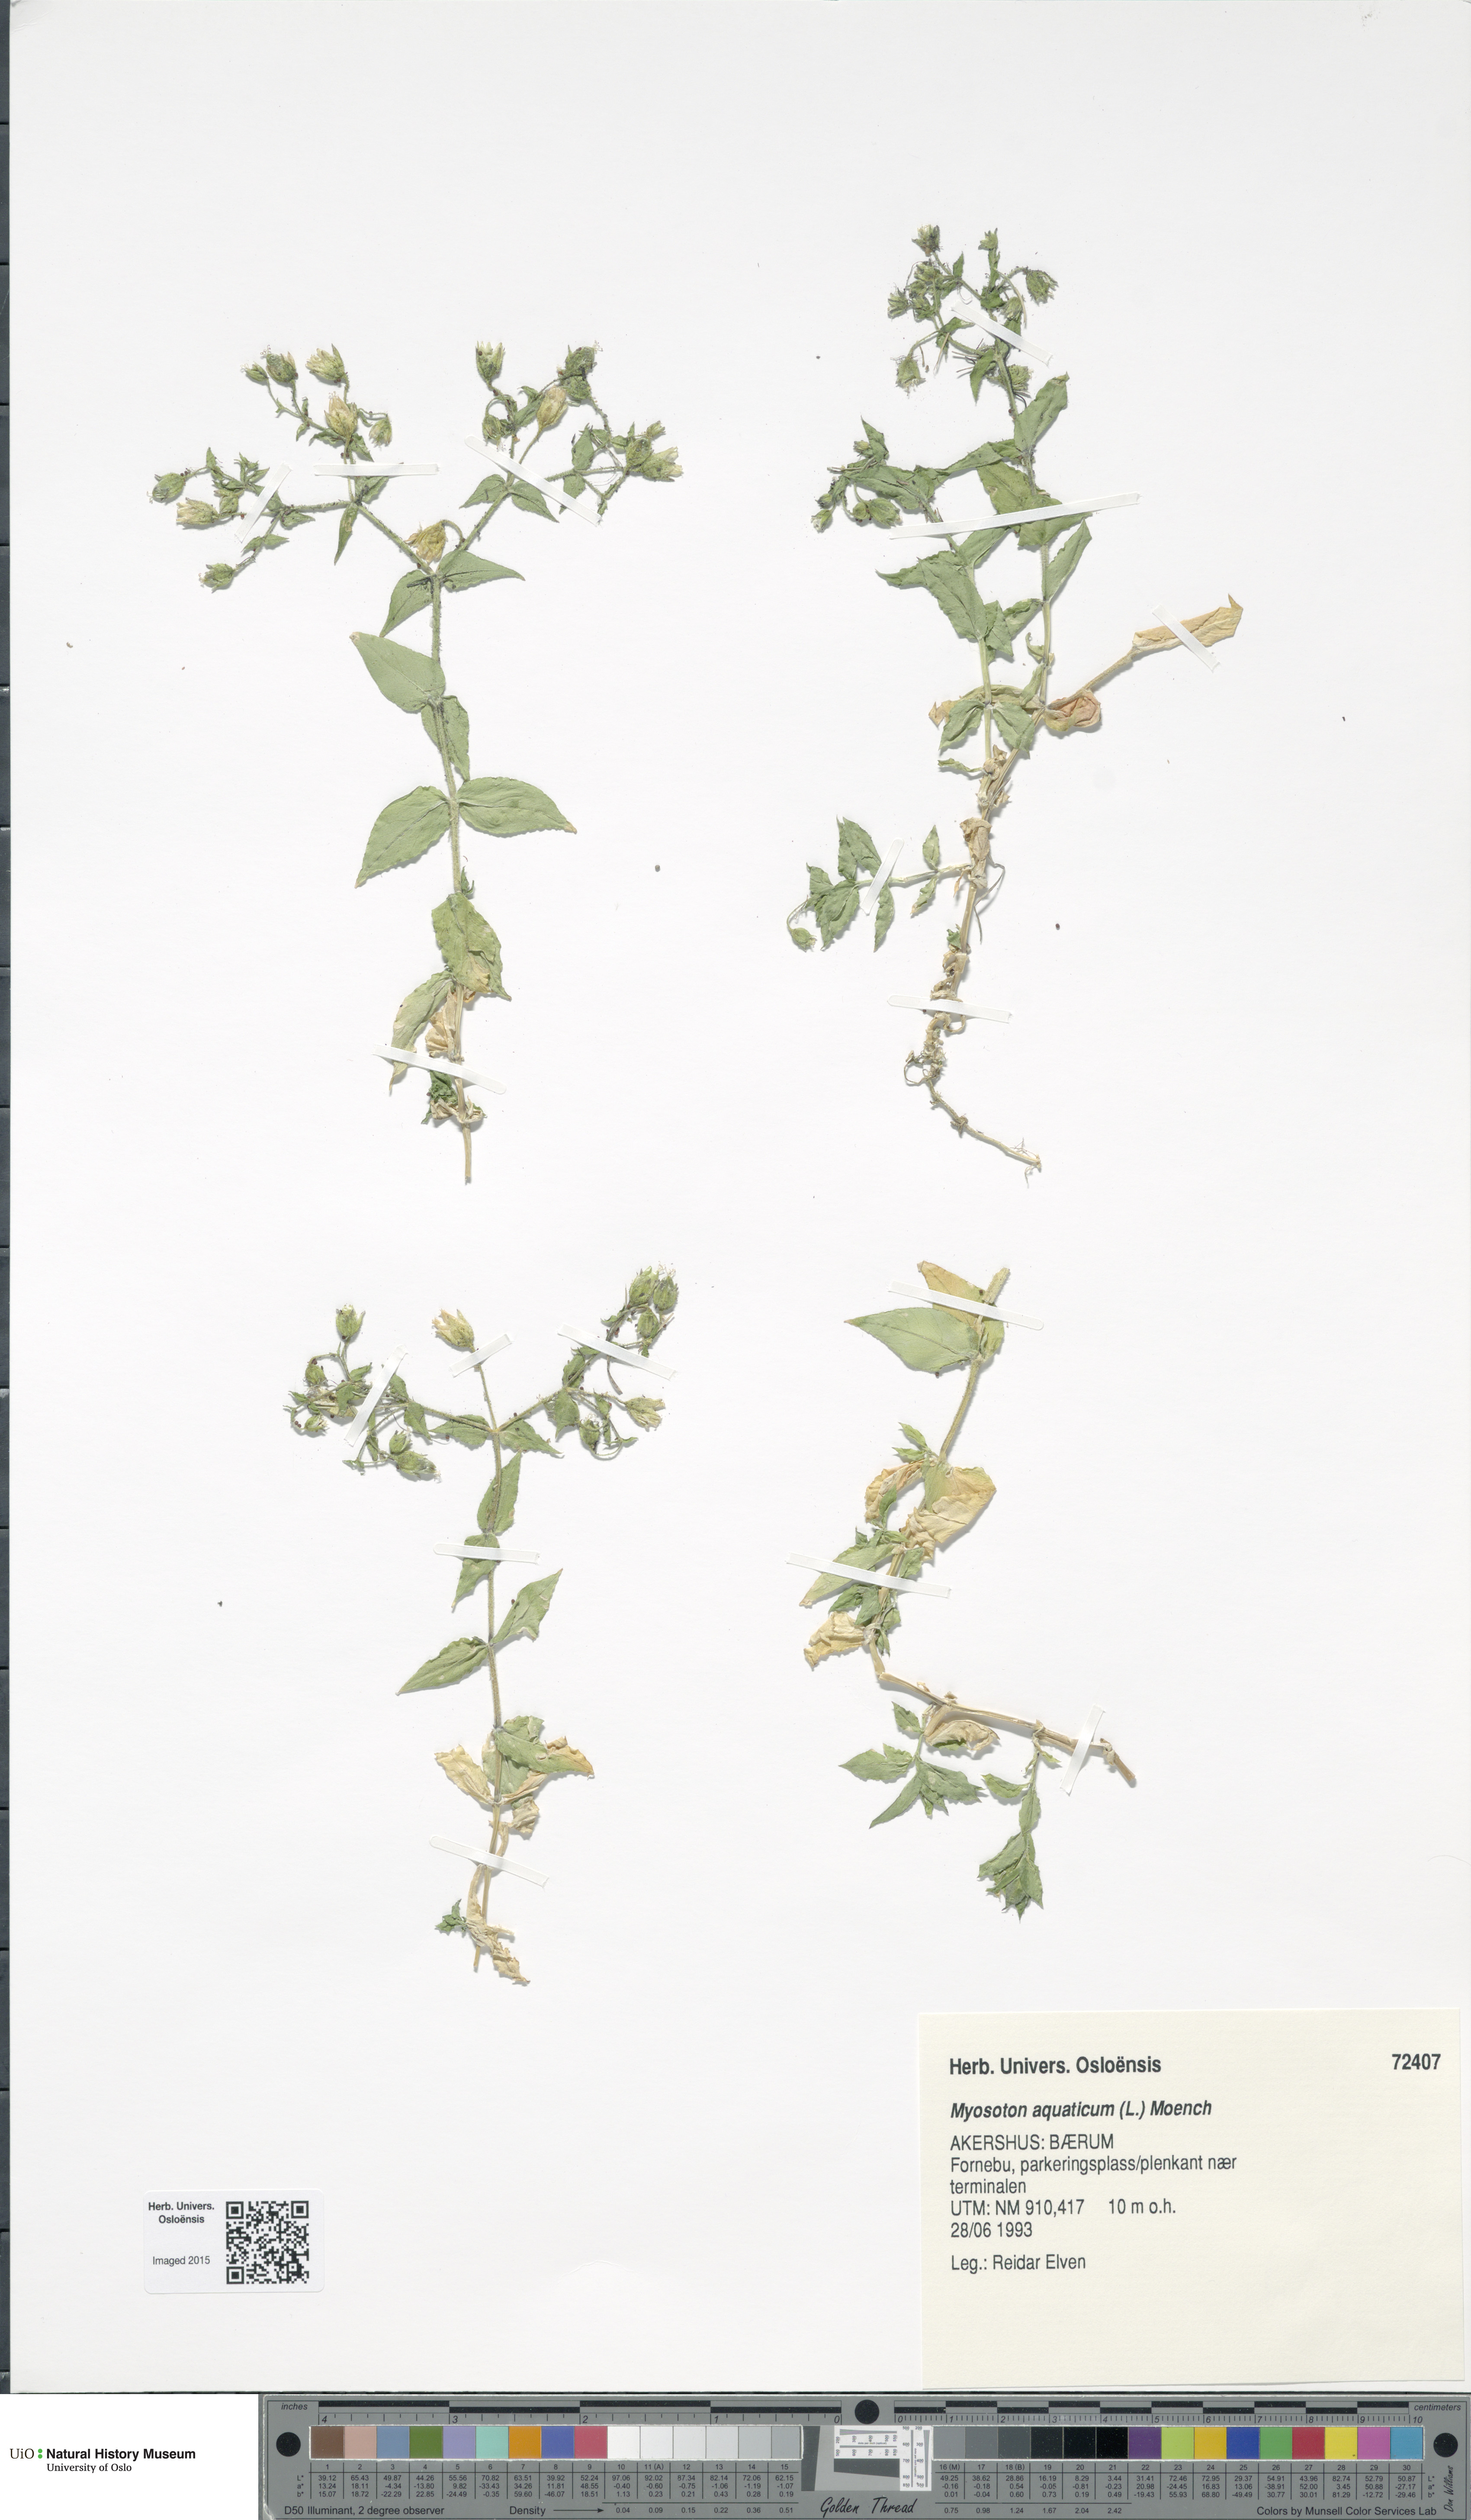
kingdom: Plantae
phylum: Tracheophyta
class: Magnoliopsida
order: Caryophyllales
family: Caryophyllaceae
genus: Stellaria
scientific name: Stellaria aquatica
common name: Water chickweed
